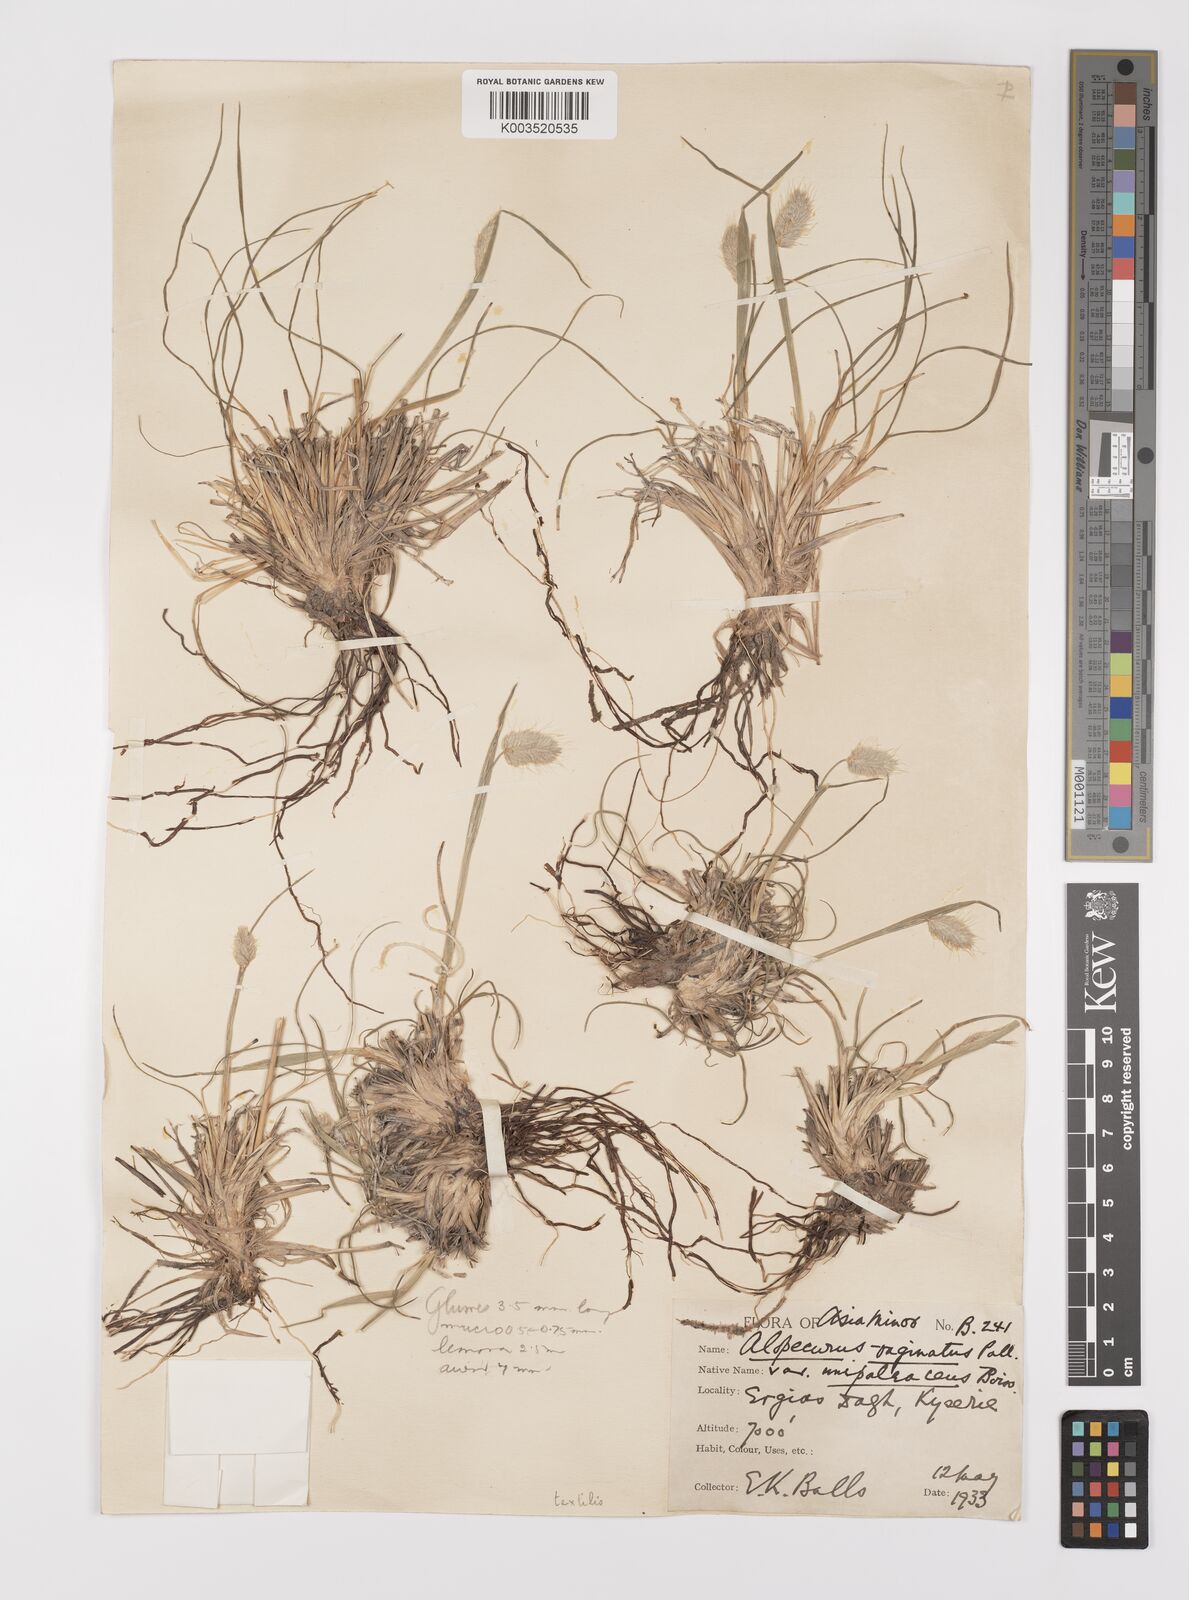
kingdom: Plantae
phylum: Tracheophyta
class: Liliopsida
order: Poales
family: Poaceae
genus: Alopecurus
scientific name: Alopecurus textilis
